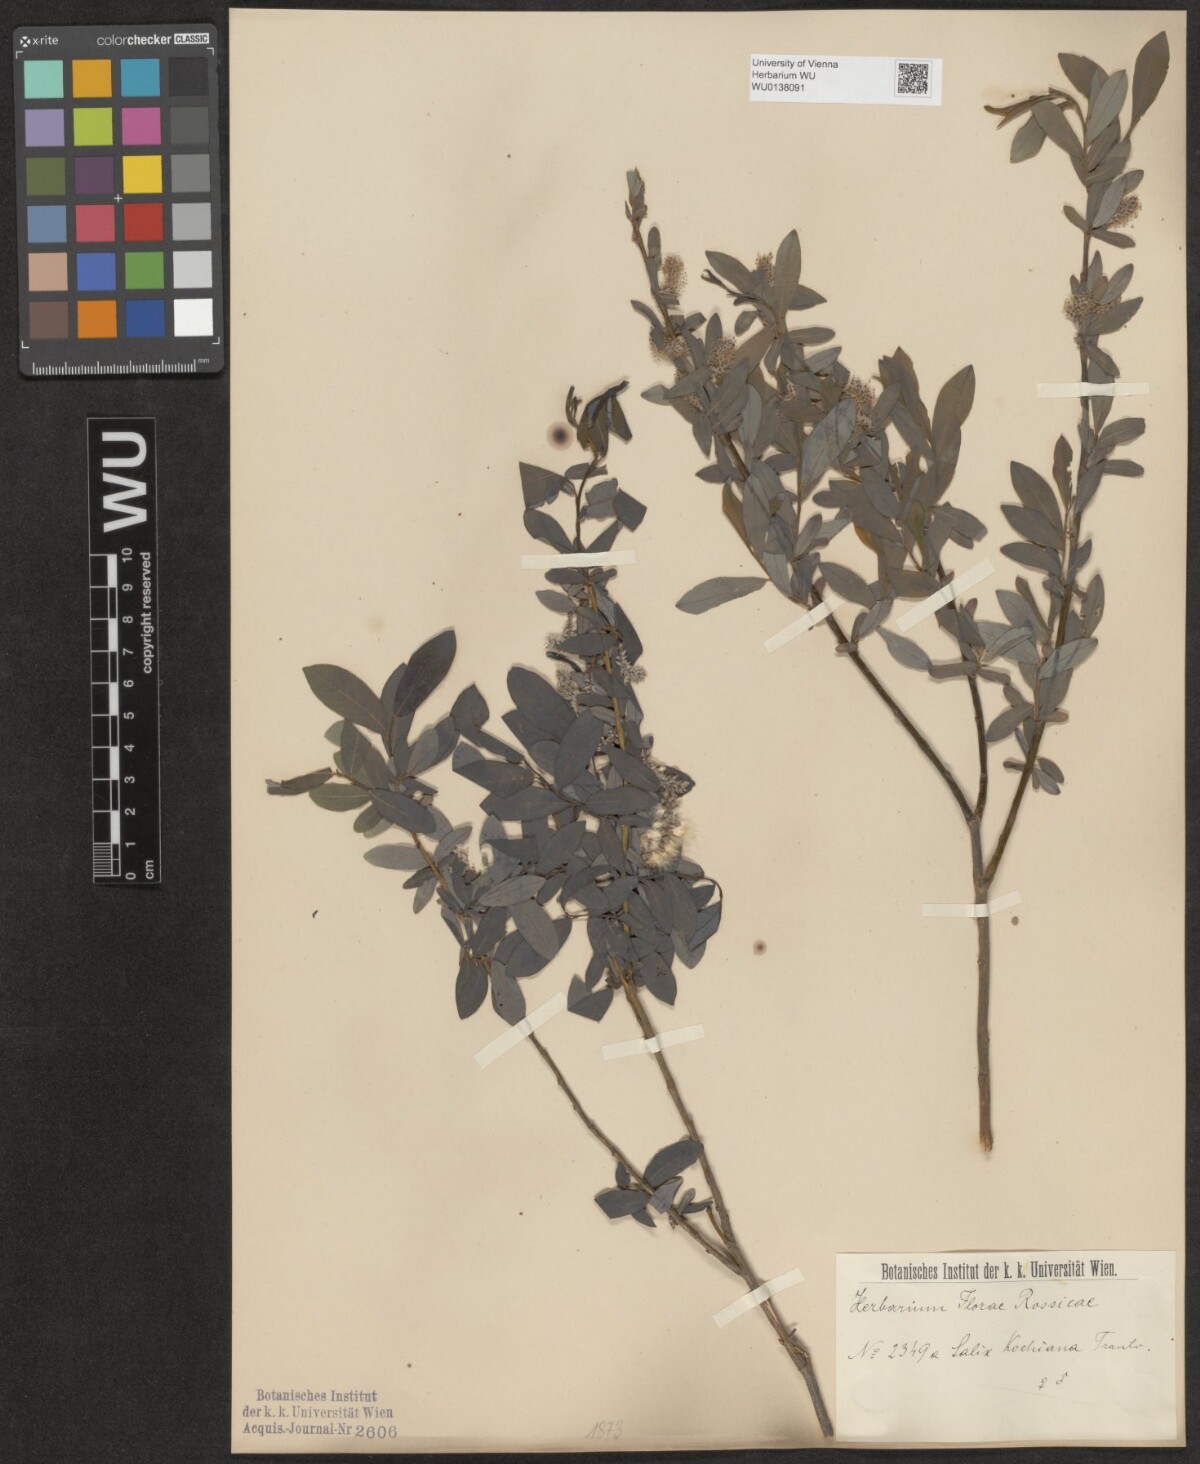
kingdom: Plantae
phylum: Tracheophyta
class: Magnoliopsida
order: Malpighiales
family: Salicaceae
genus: Salix
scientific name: Salix kochiana
